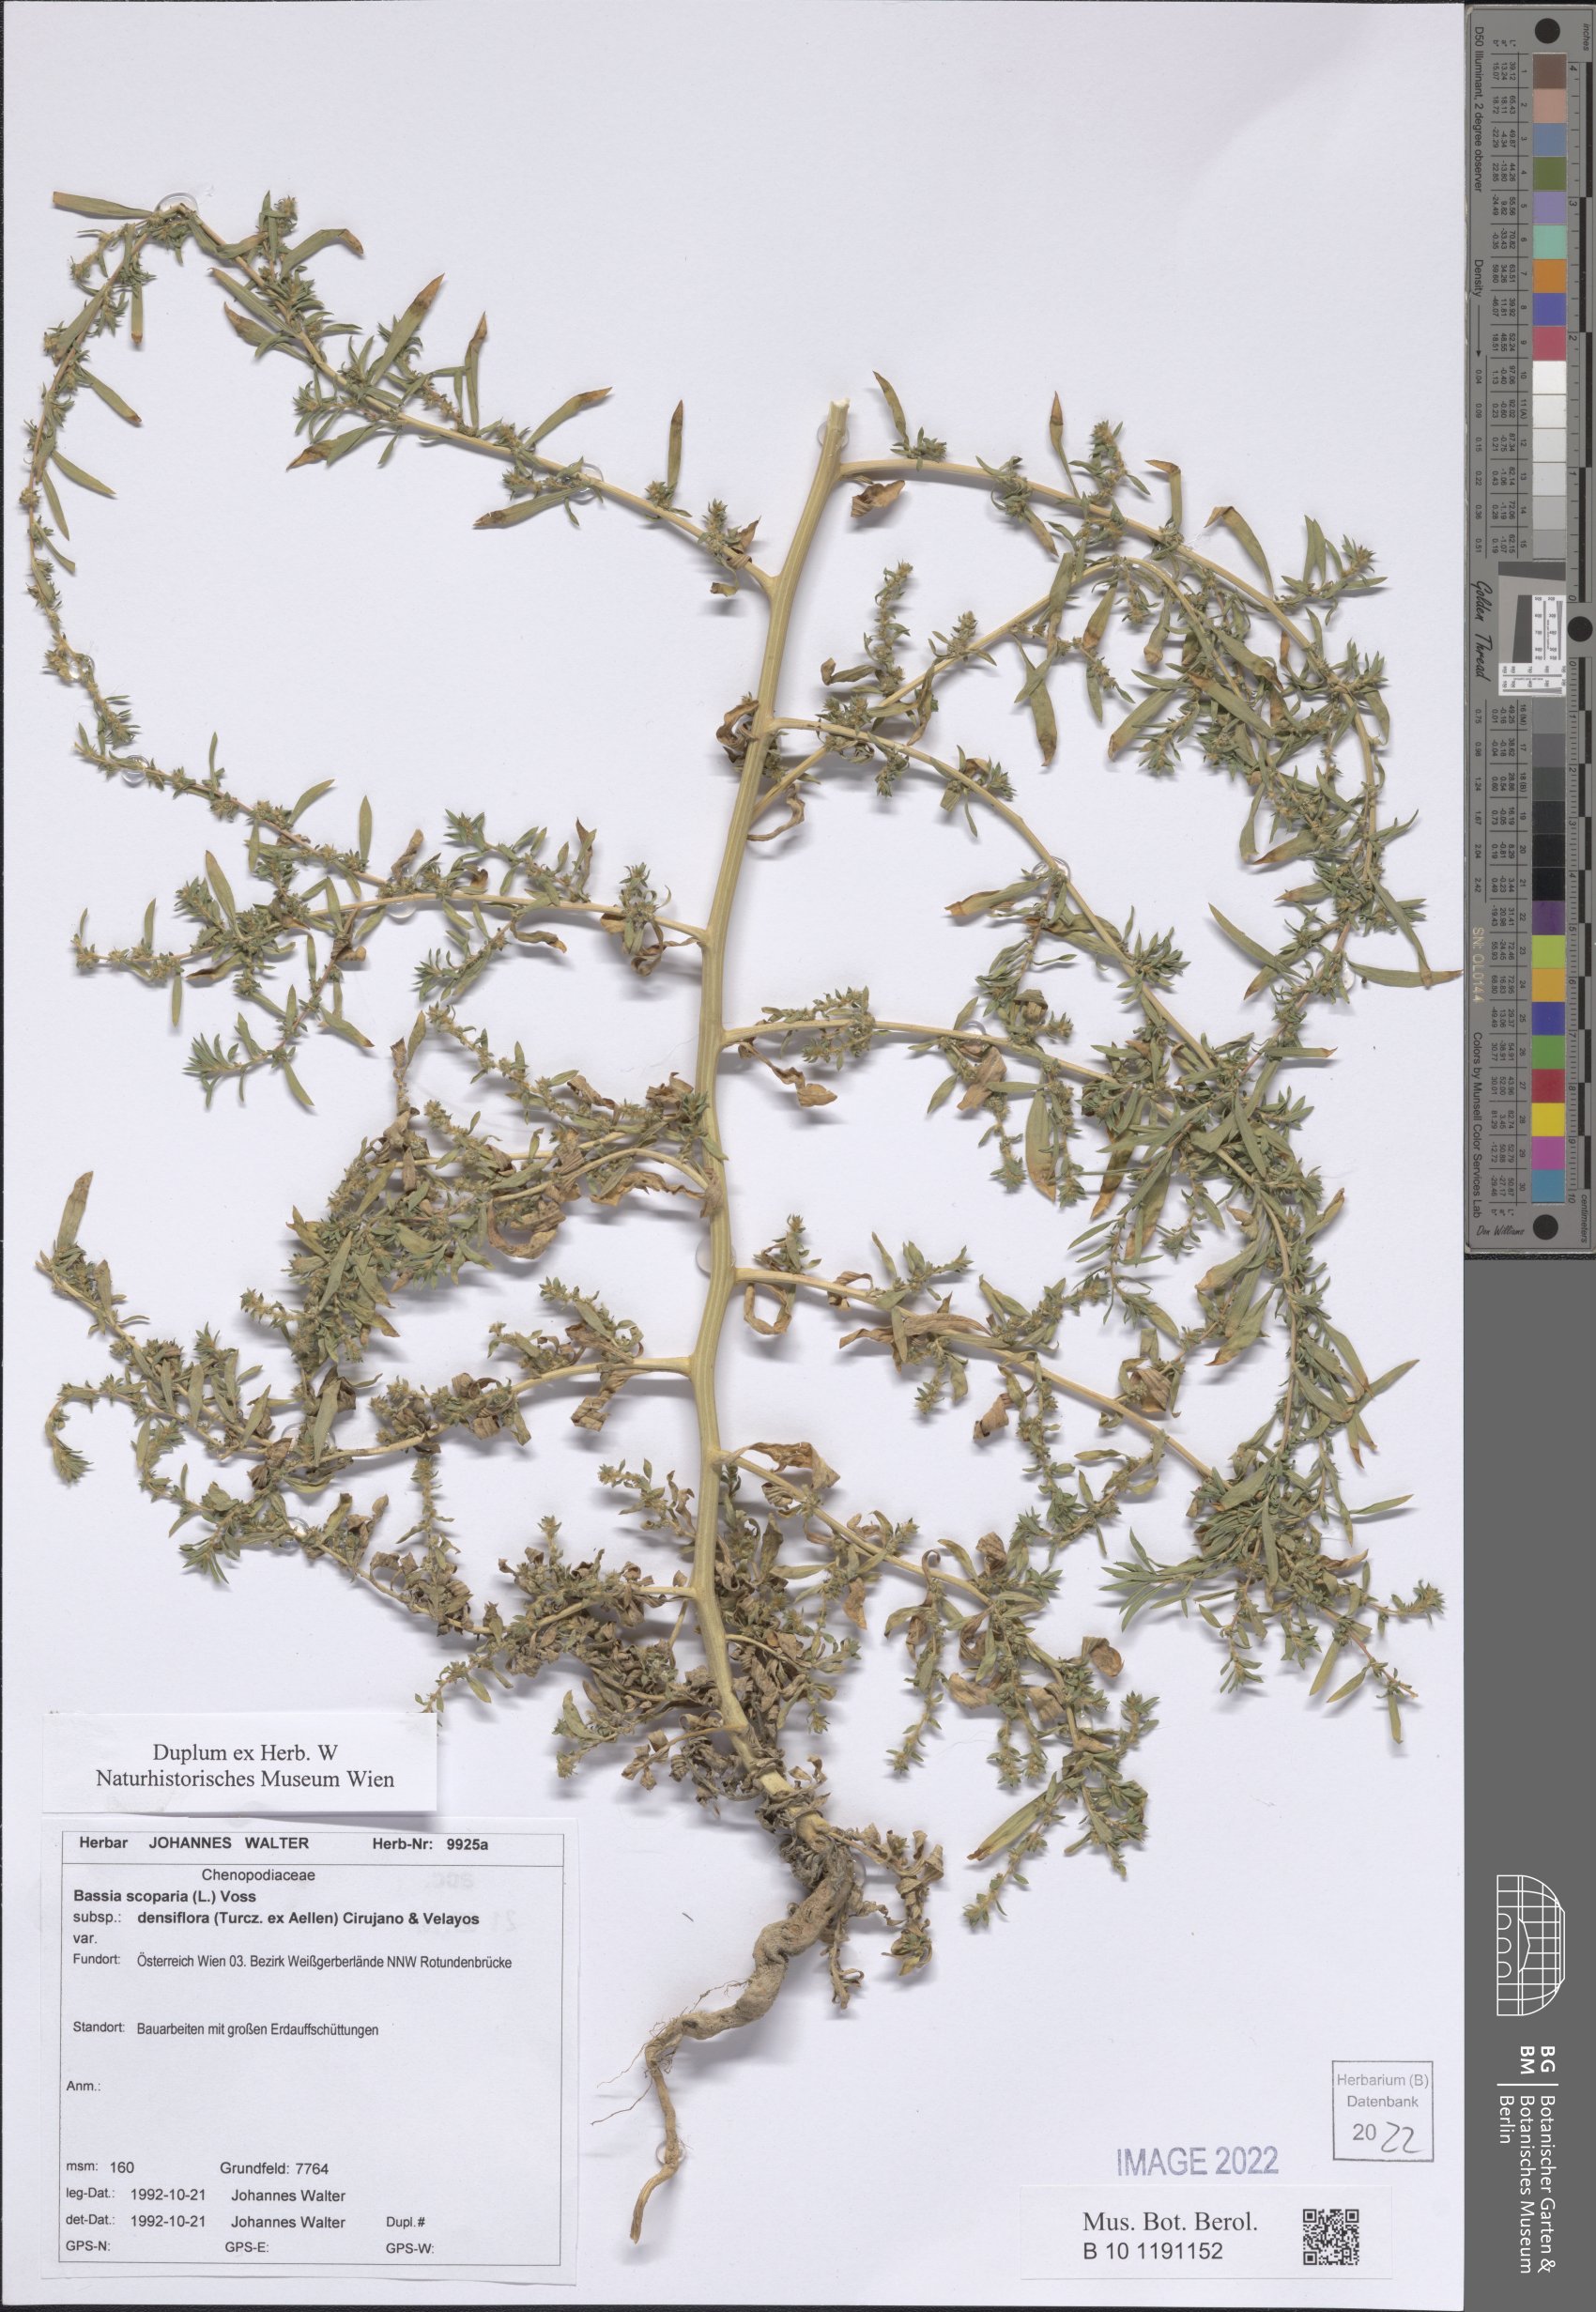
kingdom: Plantae
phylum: Tracheophyta
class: Magnoliopsida
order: Caryophyllales
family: Amaranthaceae
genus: Bassia
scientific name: Bassia scoparia
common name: Belvedere
